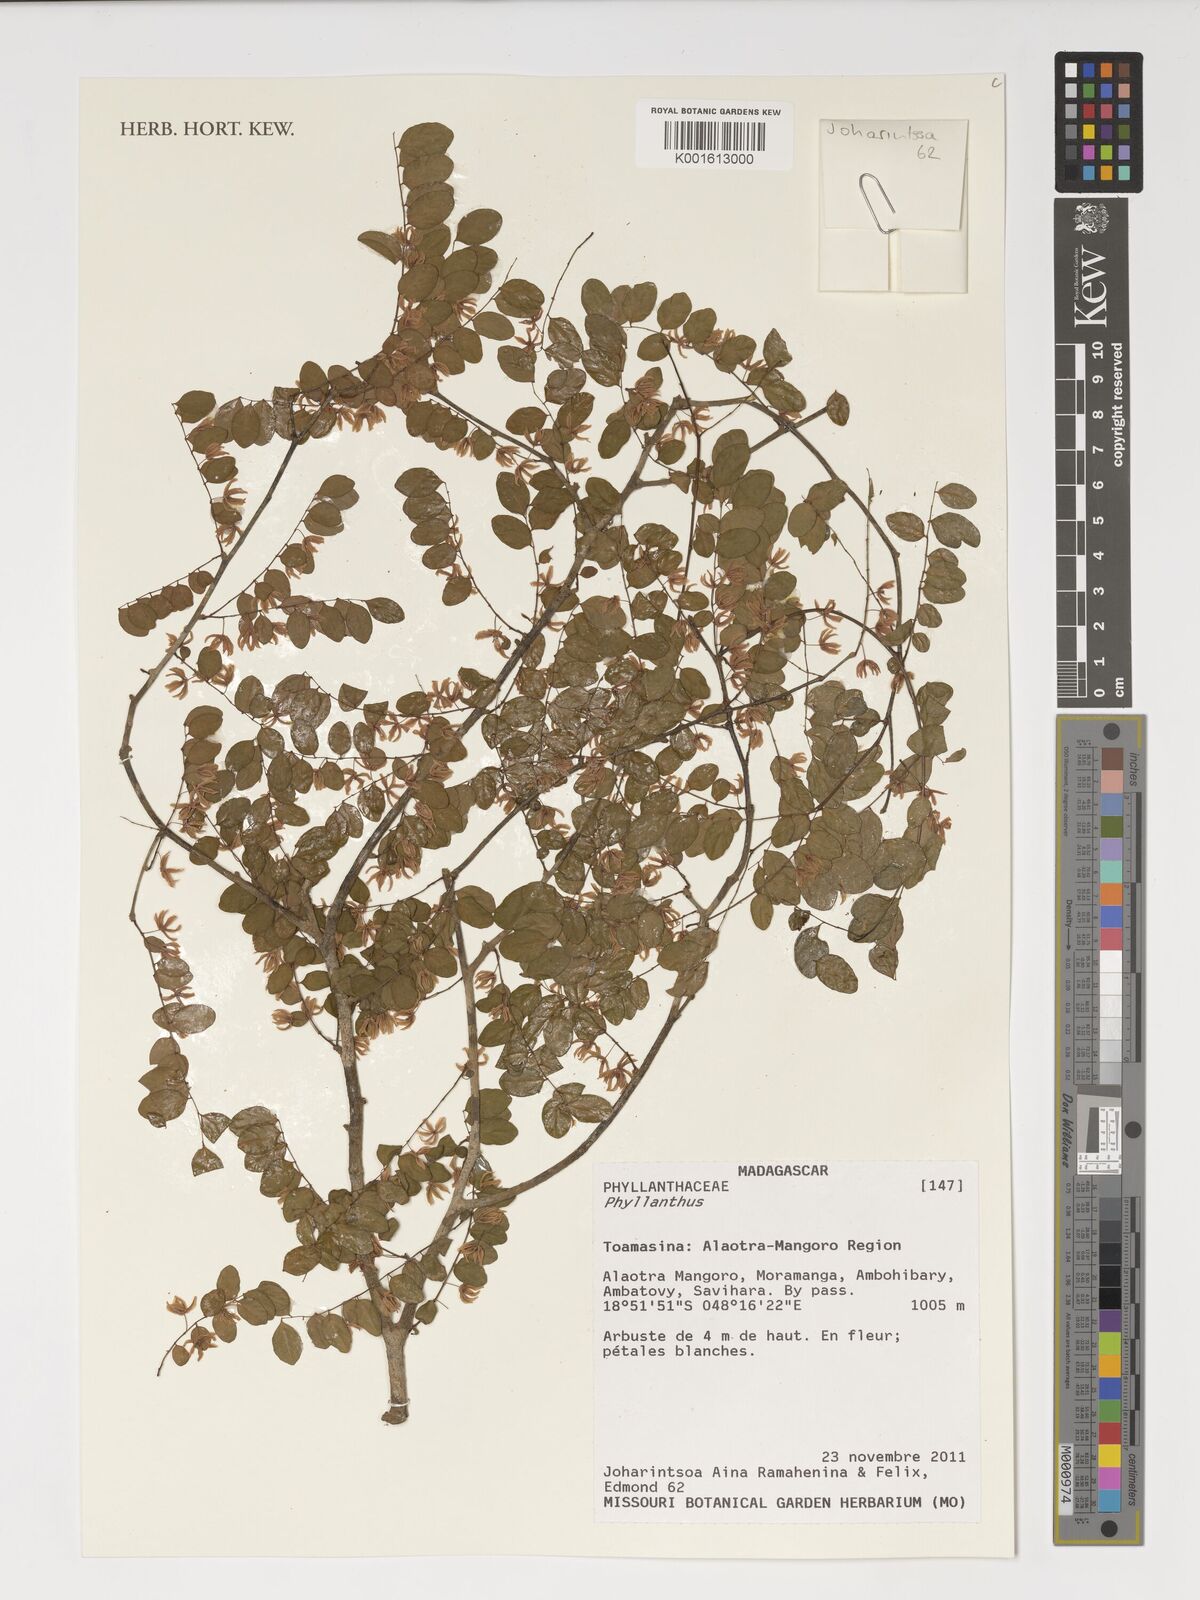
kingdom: Plantae
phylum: Tracheophyta
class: Magnoliopsida
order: Malpighiales
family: Phyllanthaceae
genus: Phyllanthus
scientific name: Phyllanthus
